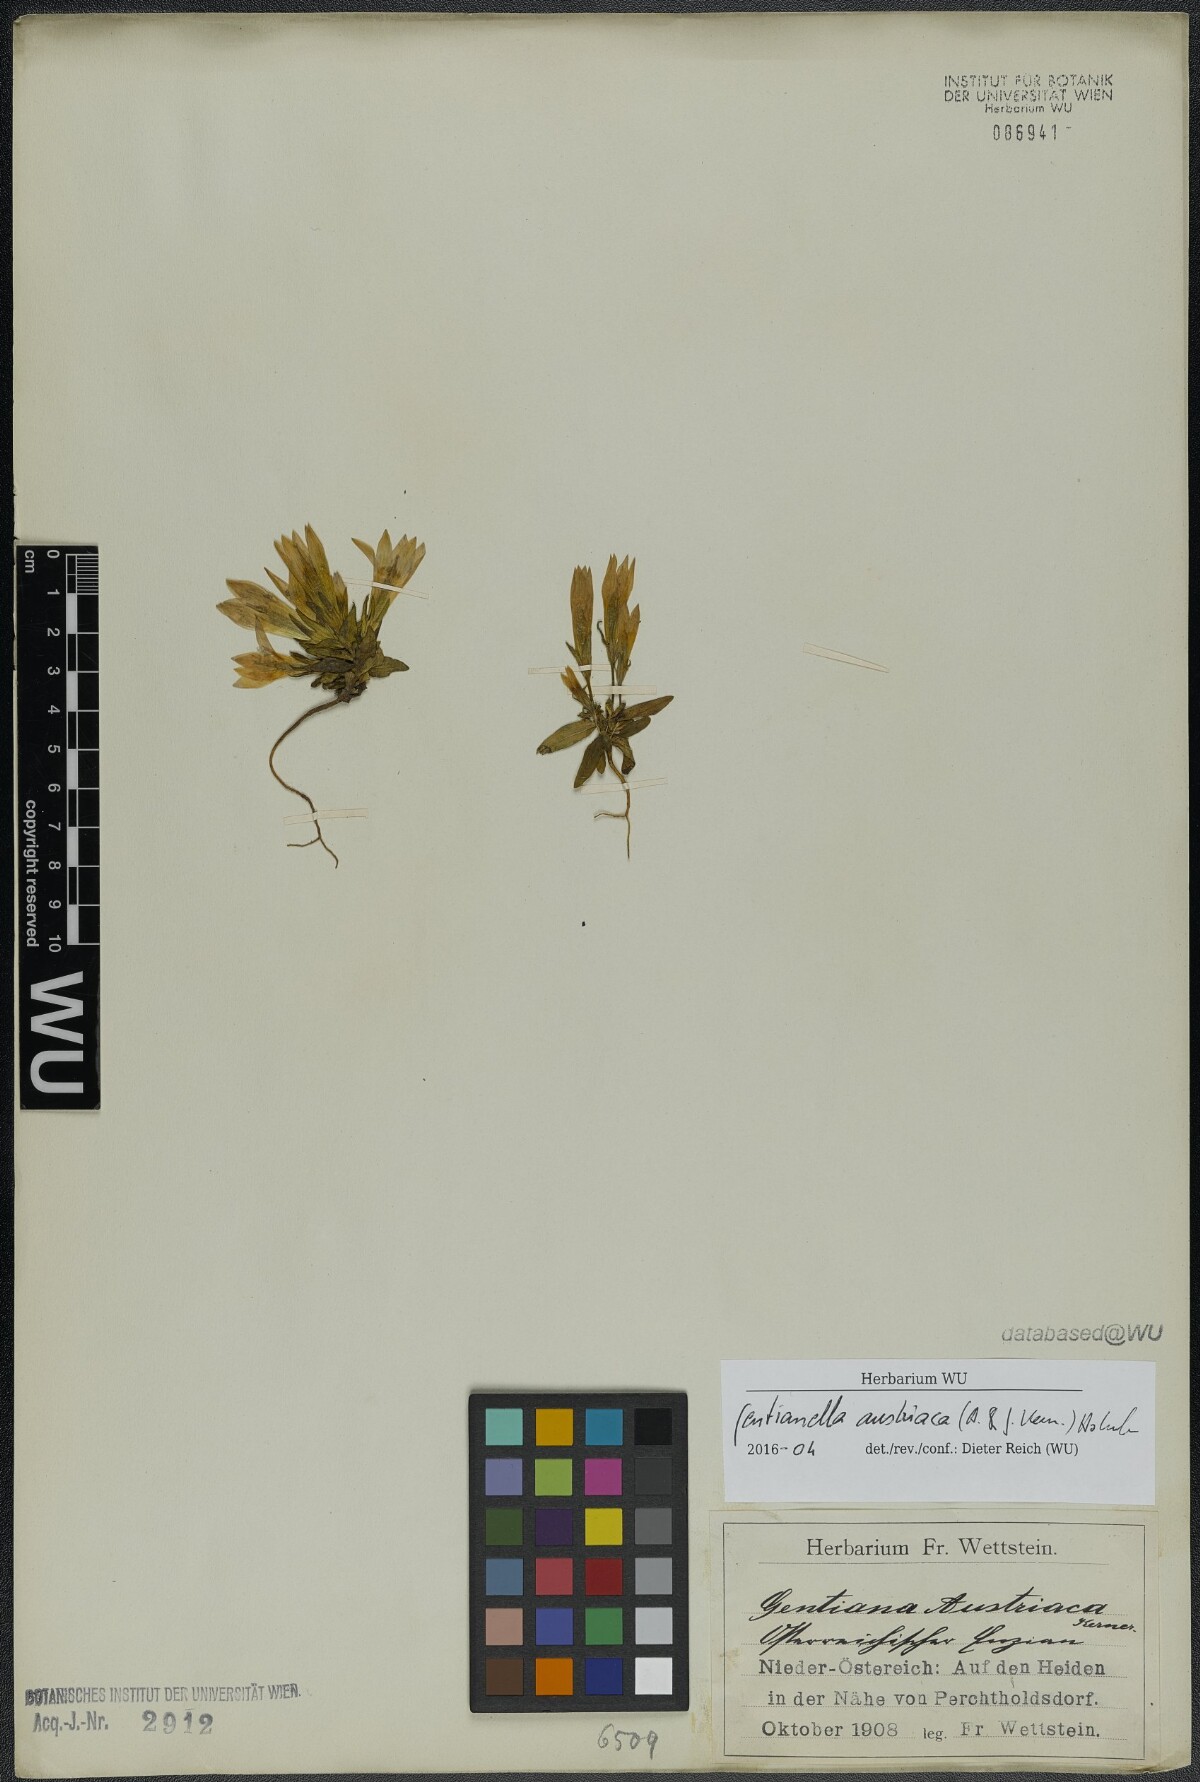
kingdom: Plantae
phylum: Tracheophyta
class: Magnoliopsida
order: Gentianales
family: Gentianaceae
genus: Gentianella
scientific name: Gentianella austriaca
